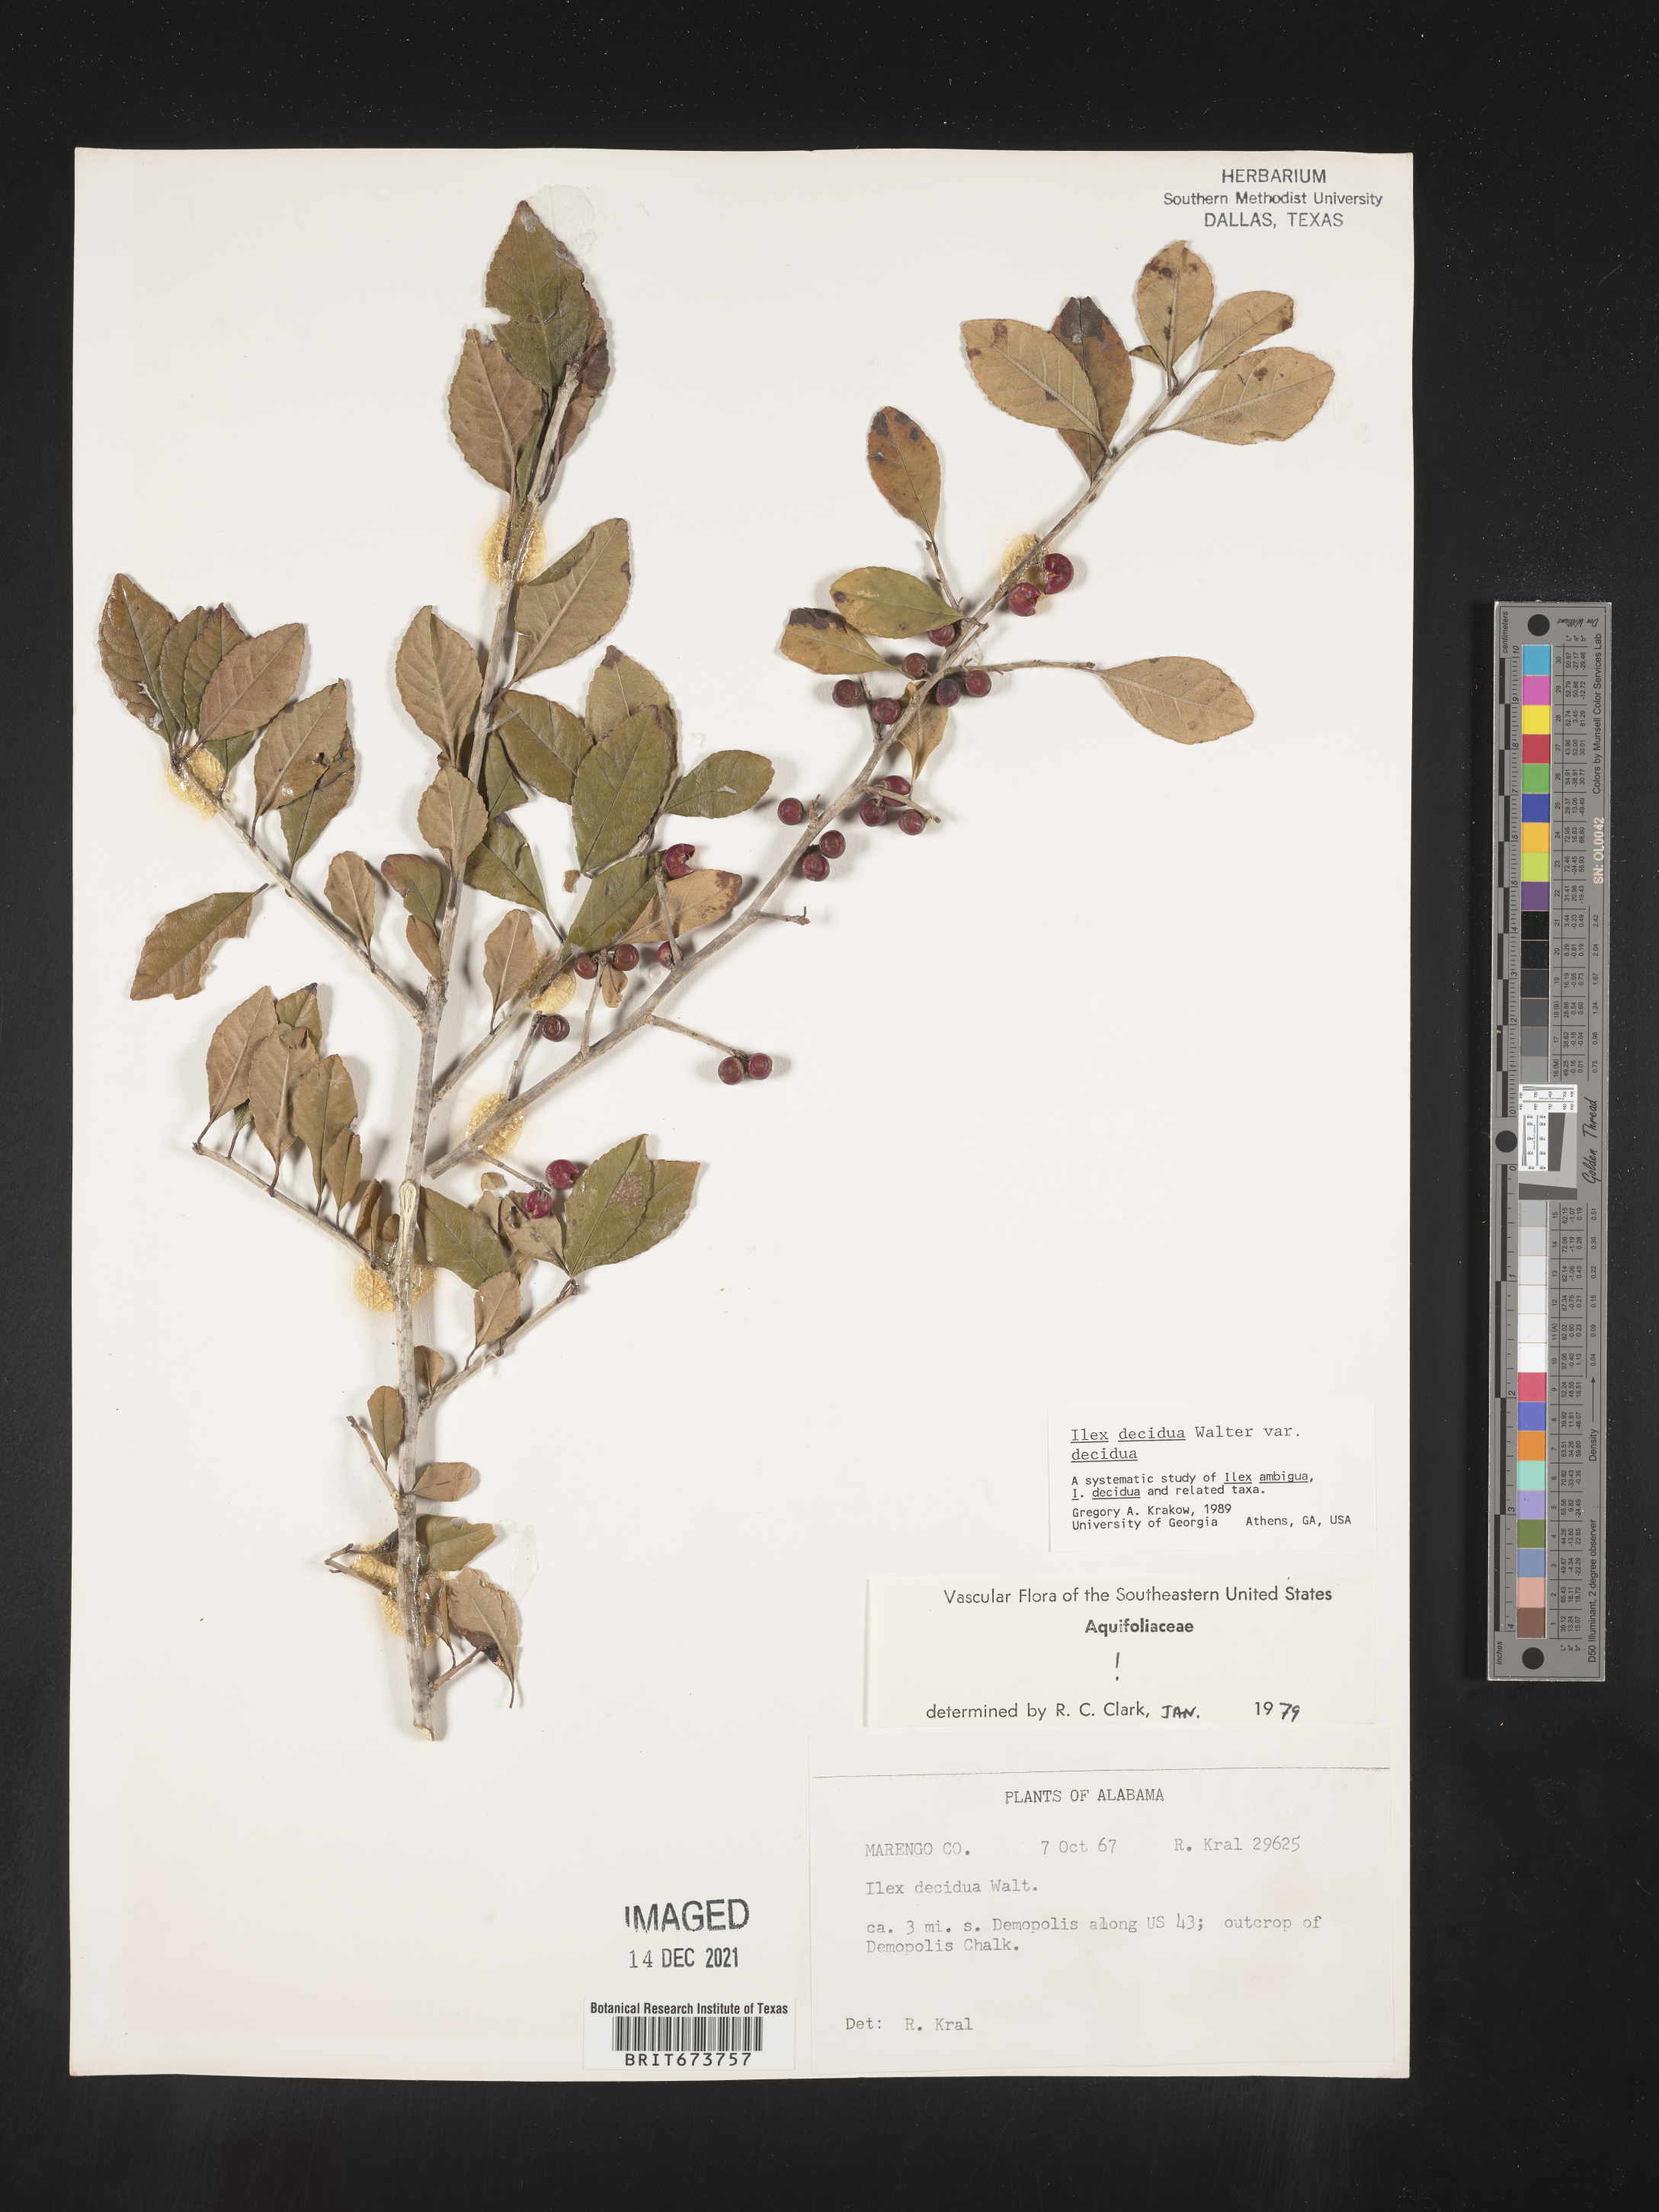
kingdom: Plantae
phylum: Tracheophyta
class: Magnoliopsida
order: Aquifoliales
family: Aquifoliaceae
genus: Ilex
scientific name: Ilex decidua
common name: Possum-haw
